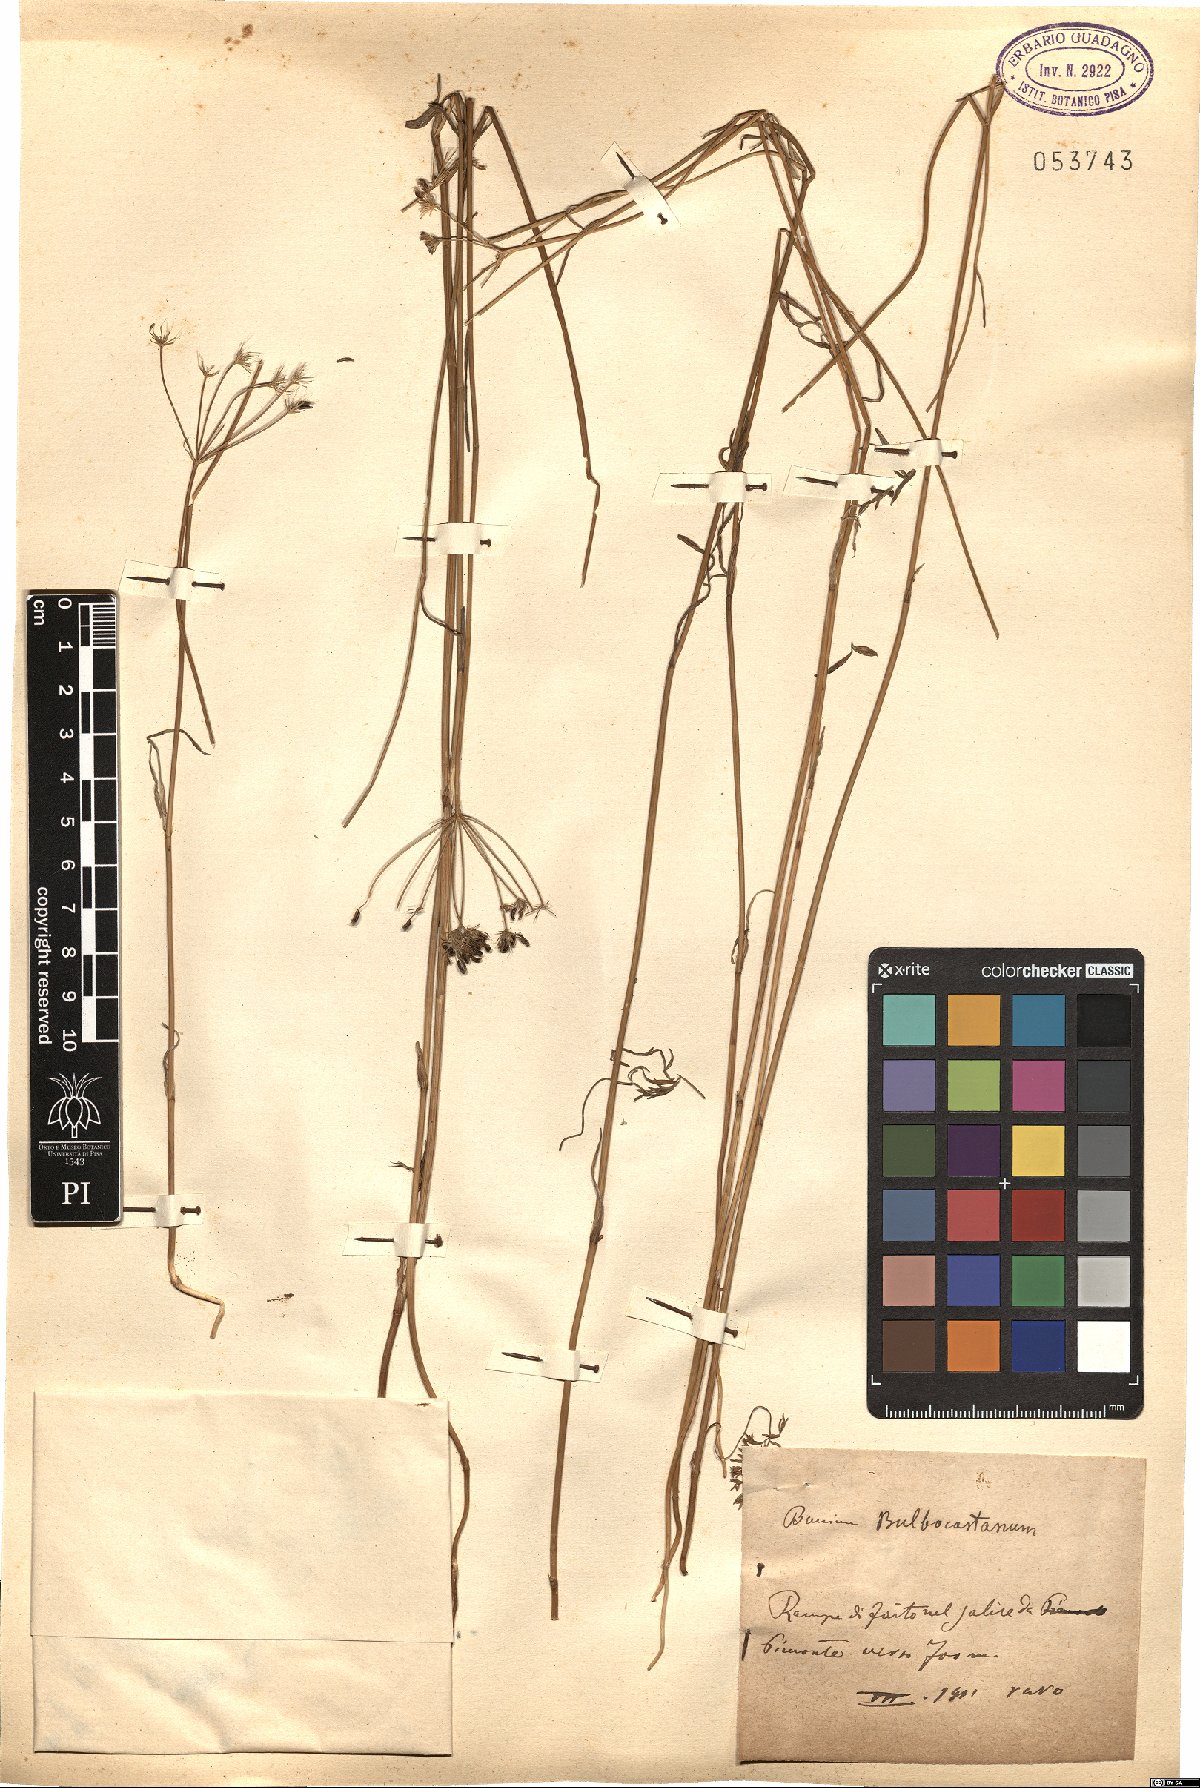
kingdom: Plantae
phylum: Tracheophyta
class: Magnoliopsida
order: Apiales
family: Apiaceae
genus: Bunium
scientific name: Bunium bulbocastanum
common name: Great pignut
